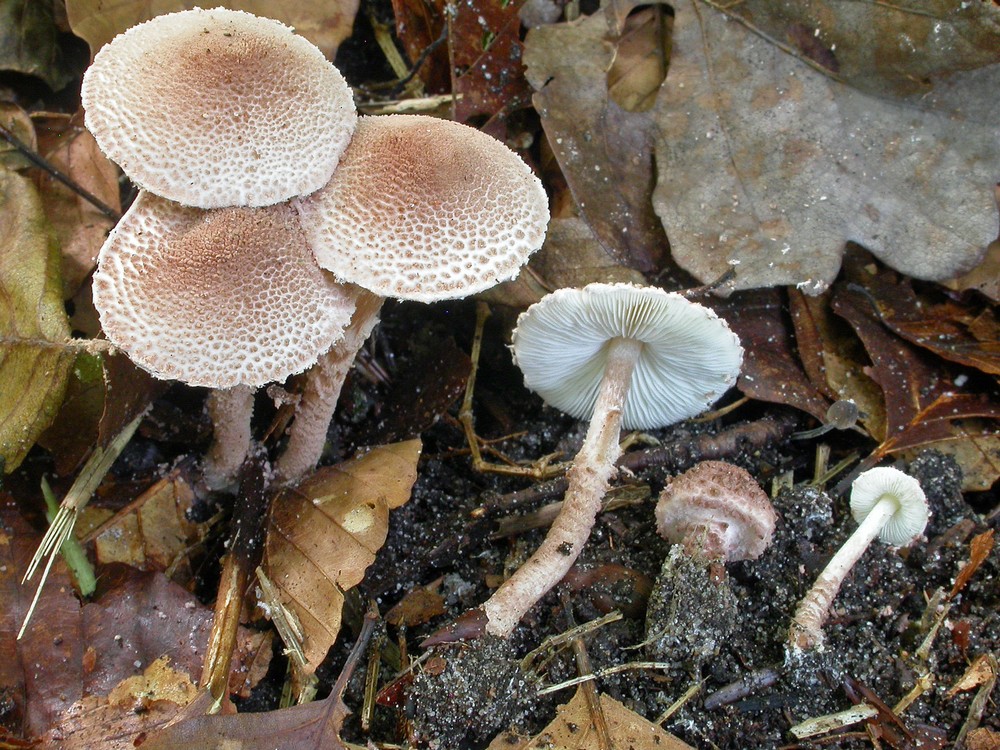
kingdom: Fungi
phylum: Basidiomycota
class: Agaricomycetes
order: Agaricales
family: Agaricaceae
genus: Lepiota
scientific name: Lepiota echinella
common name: finskællet parasolhat
